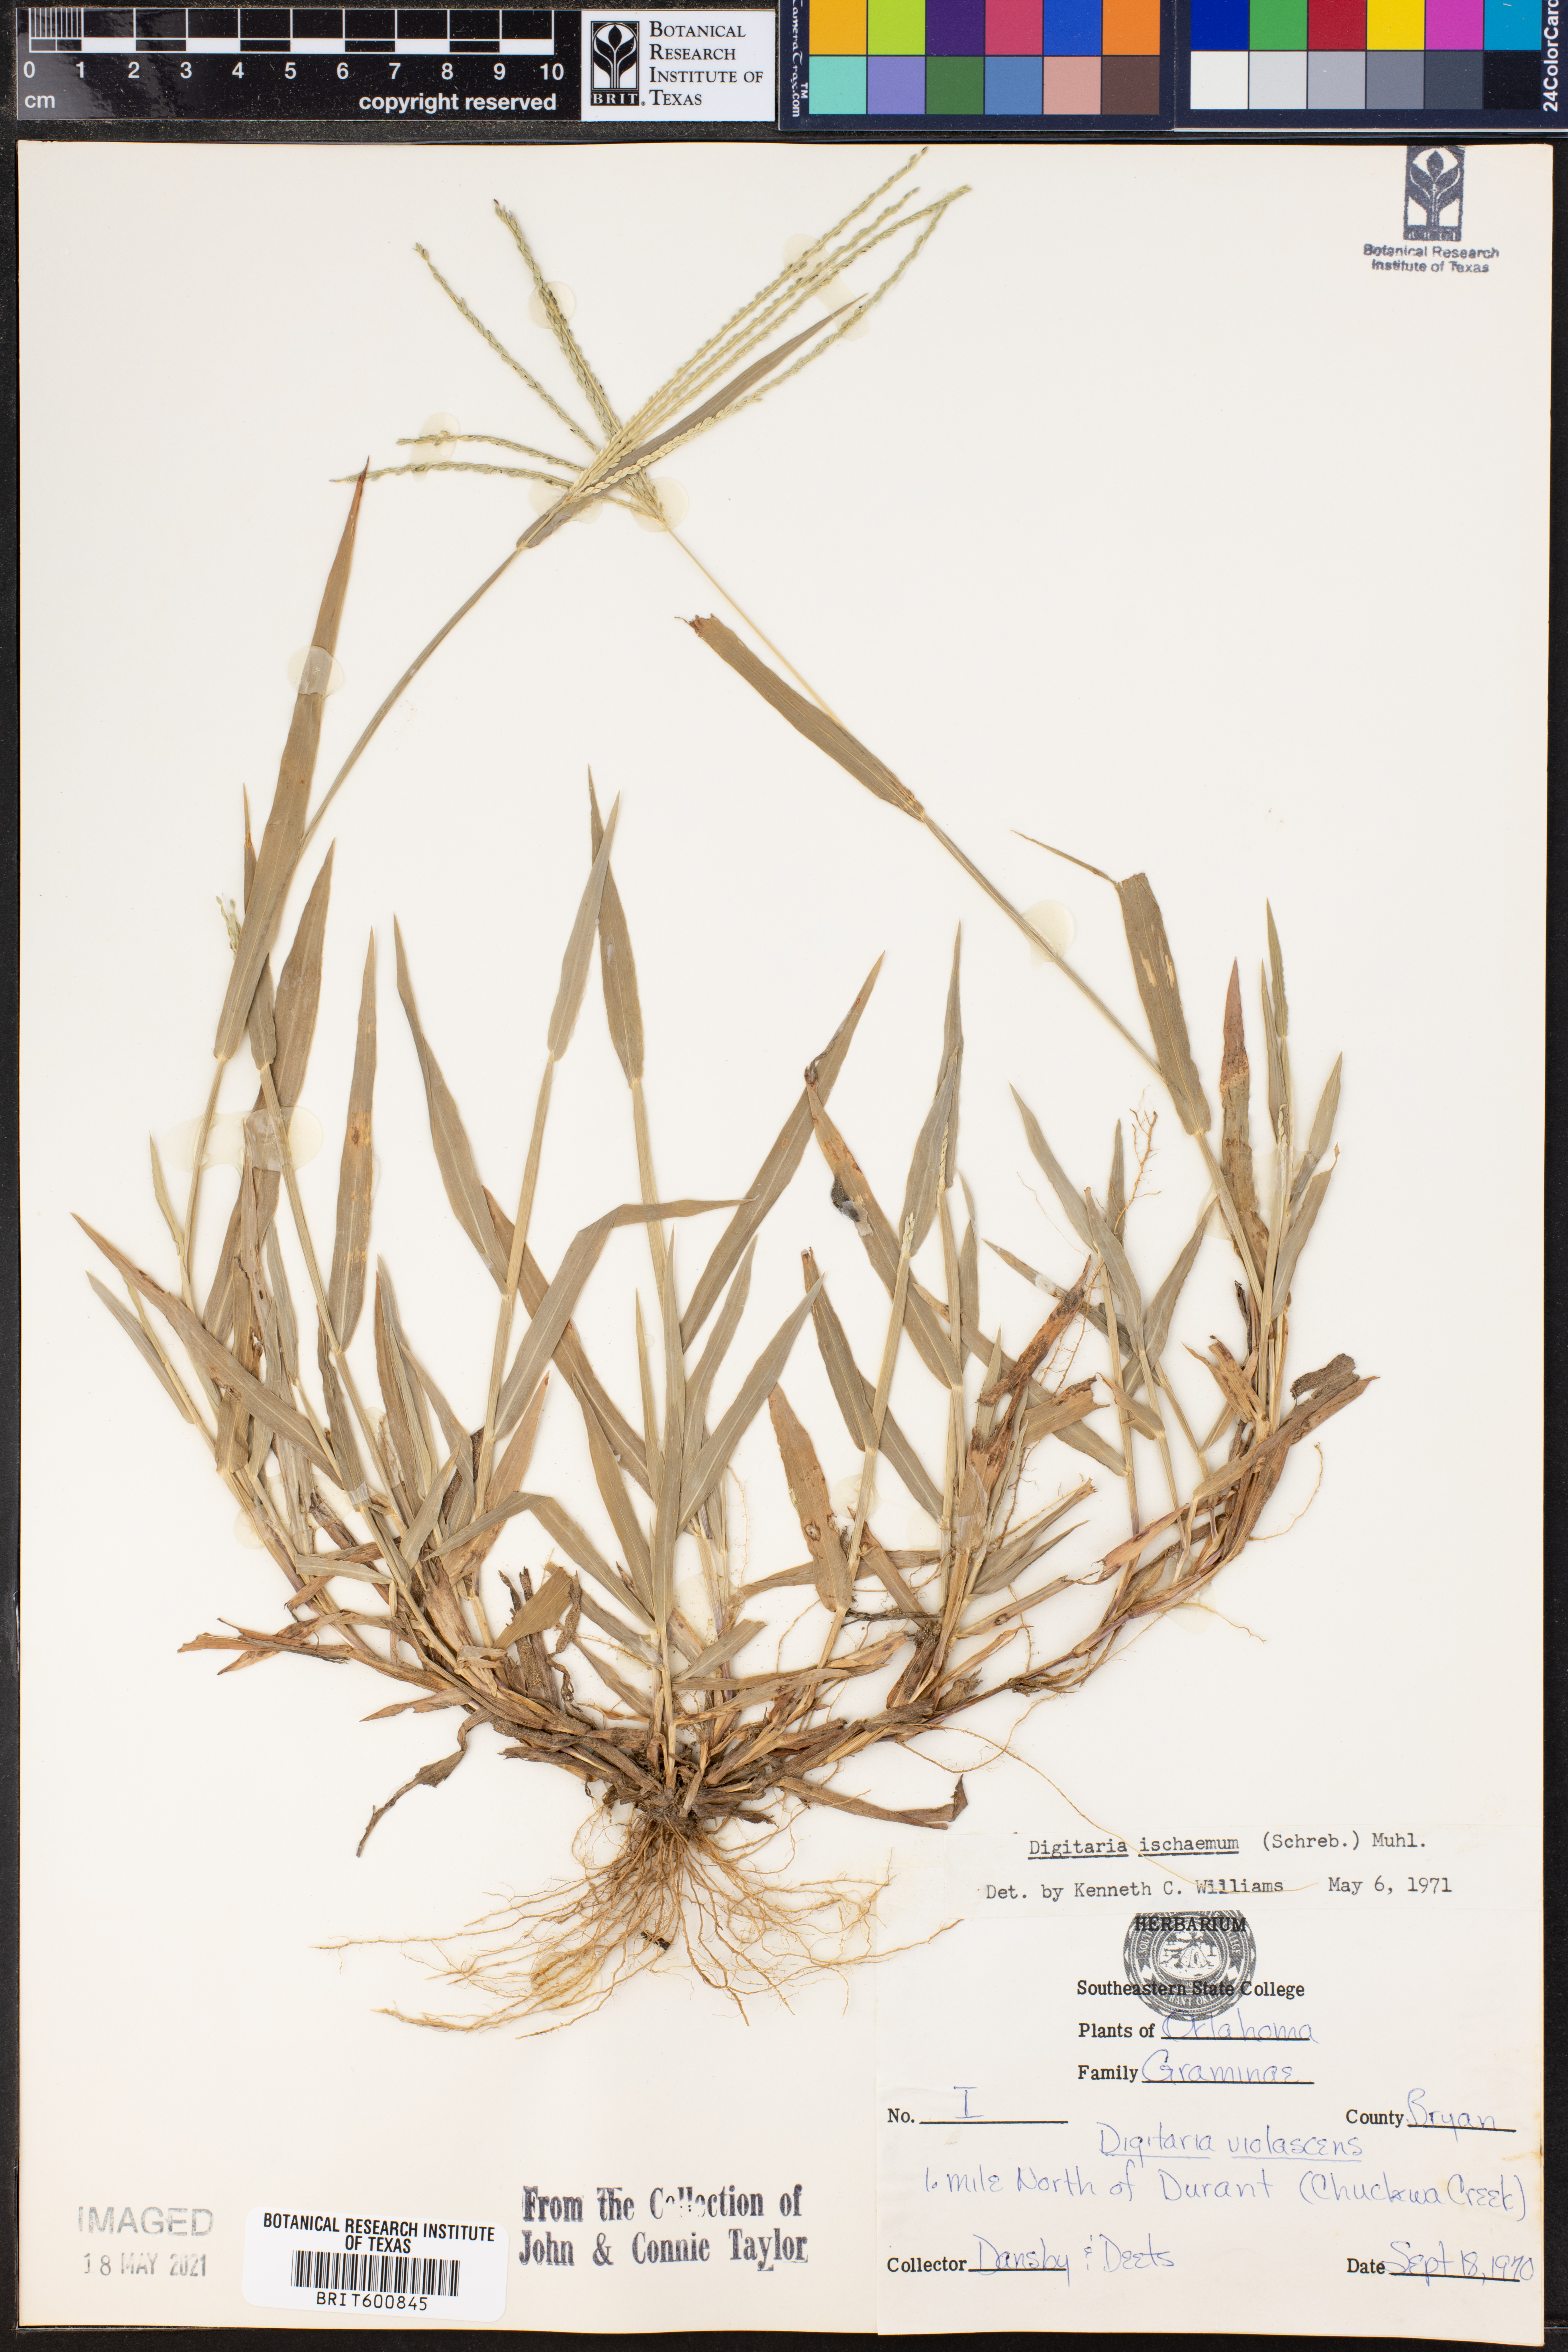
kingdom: Plantae
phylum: Tracheophyta
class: Liliopsida
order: Poales
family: Poaceae
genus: Digitaria
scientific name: Digitaria ischaemum
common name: Smooth crabgrass
